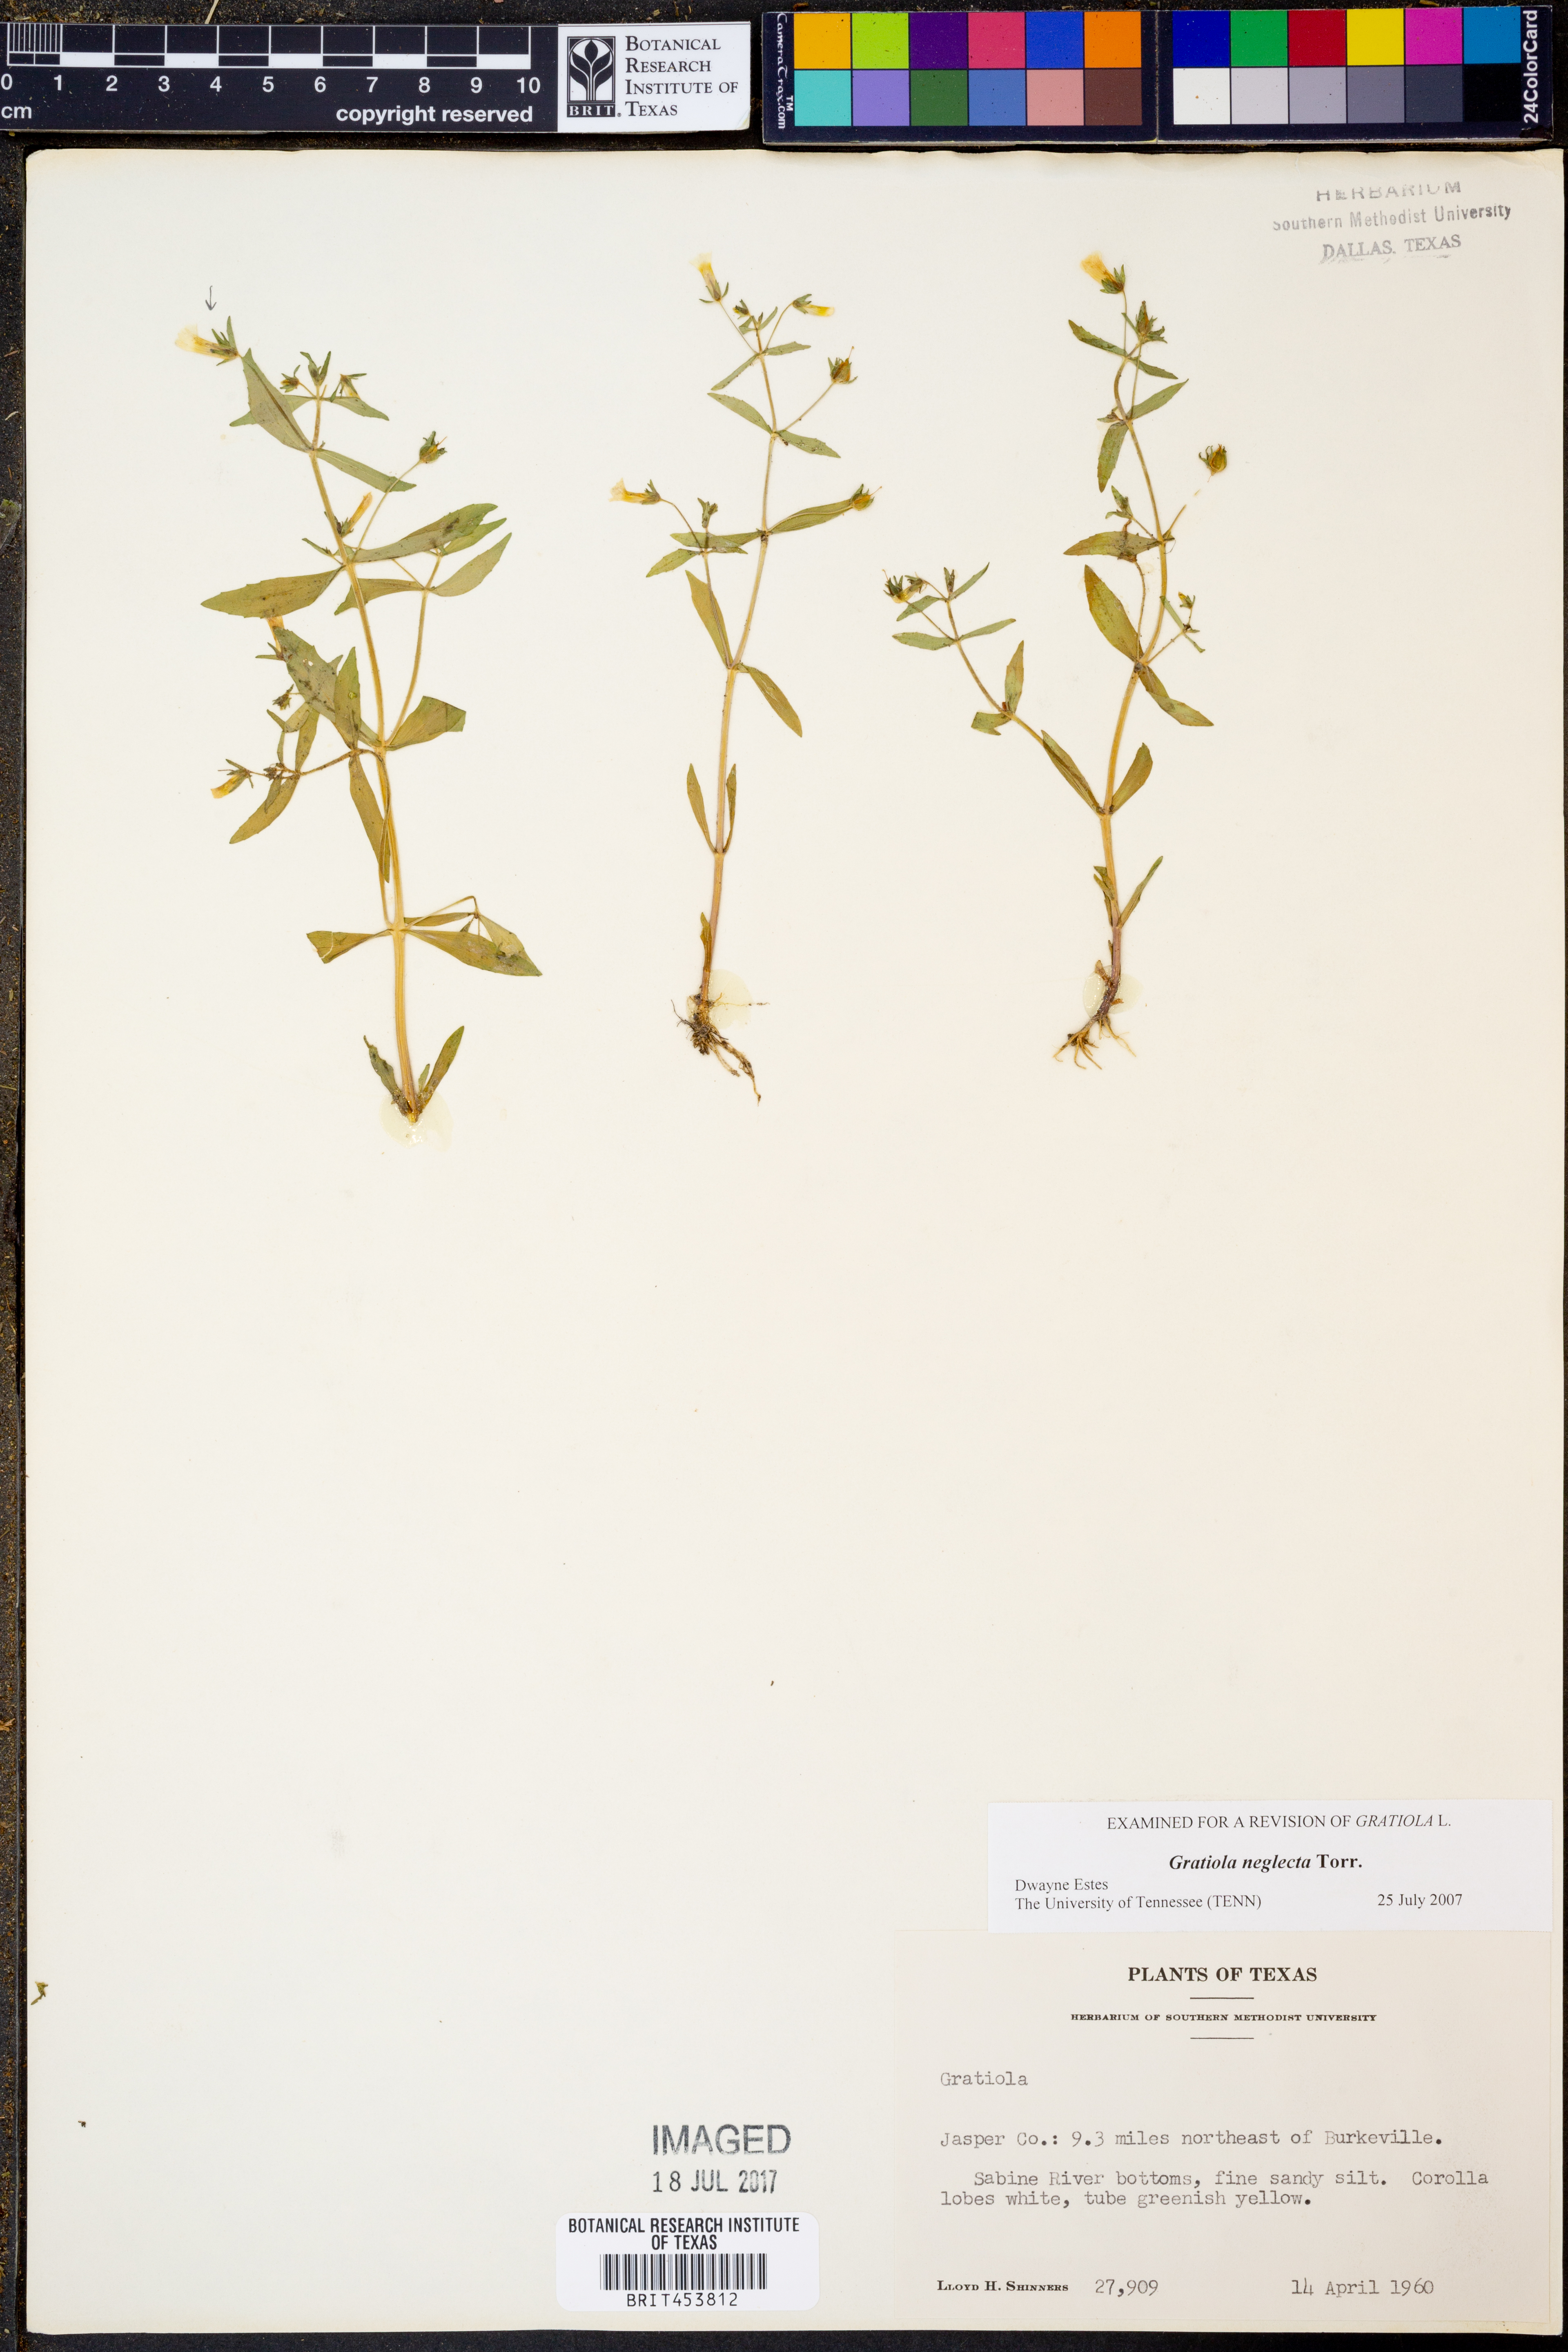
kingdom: Plantae
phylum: Tracheophyta
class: Magnoliopsida
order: Lamiales
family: Plantaginaceae
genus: Gratiola
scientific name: Gratiola neglecta
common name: American hedge-hyssop
